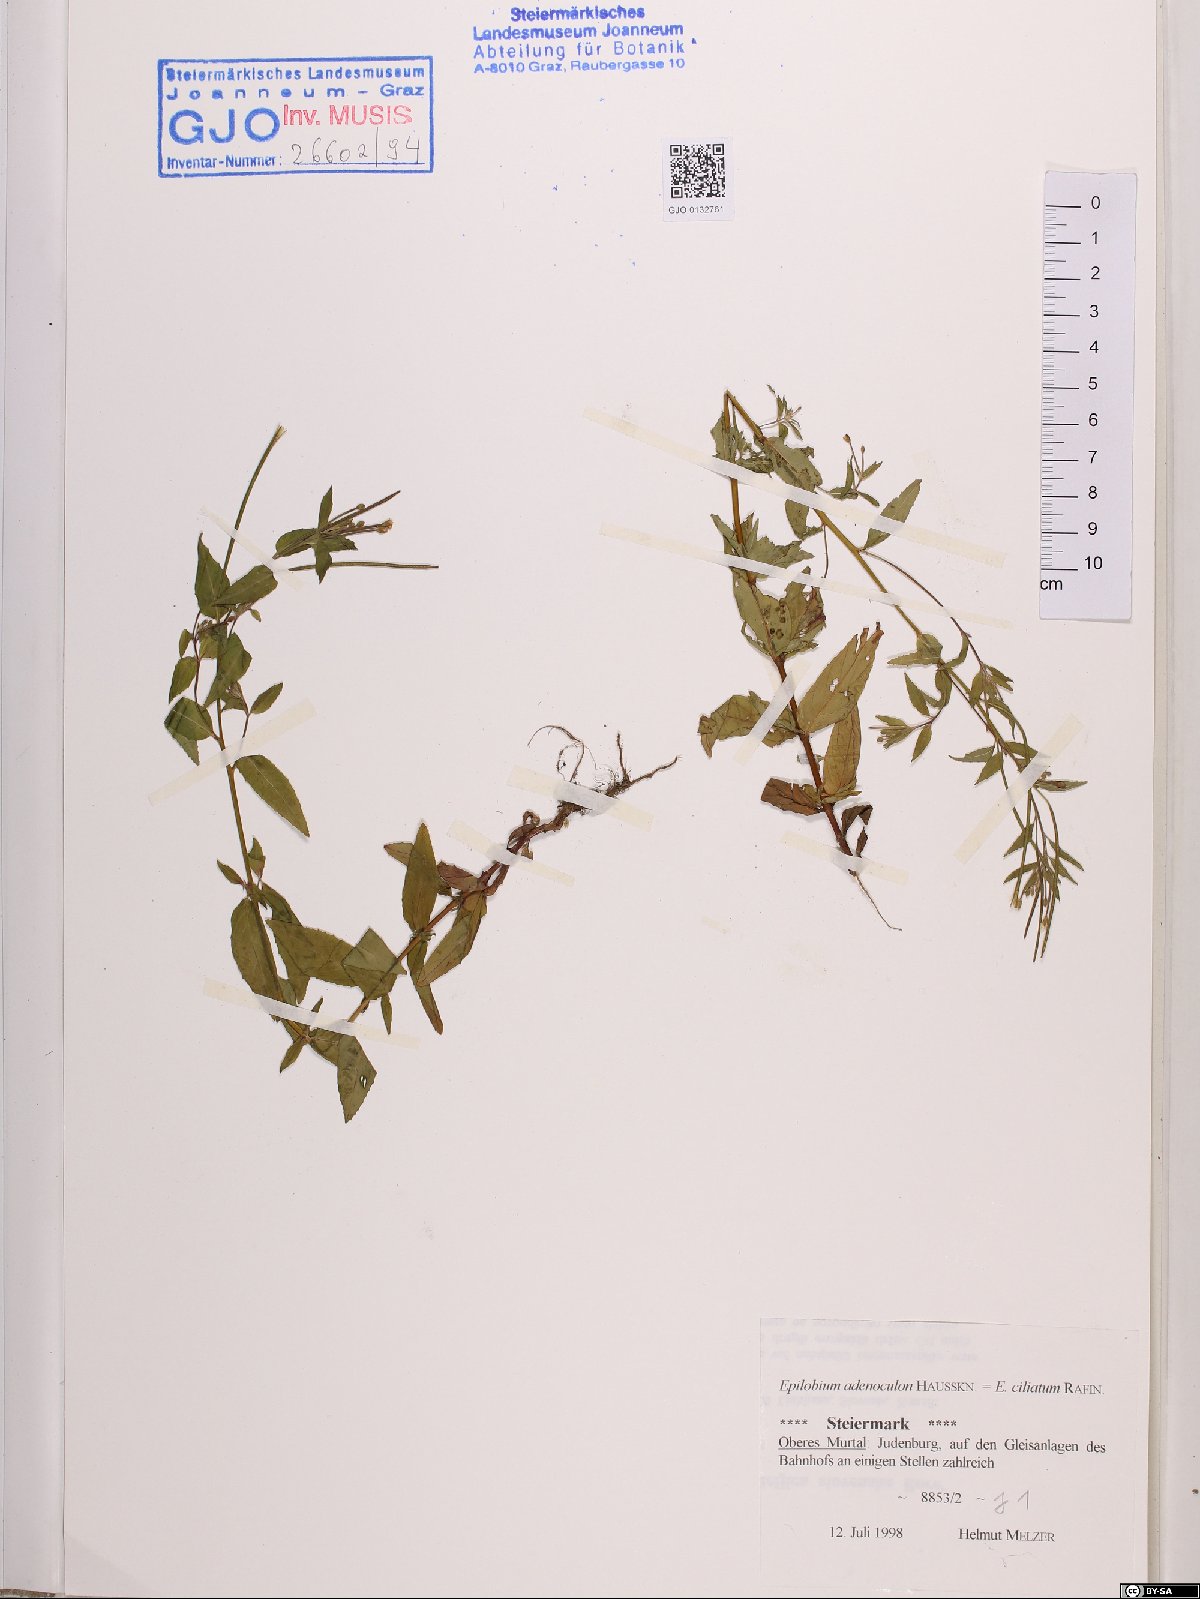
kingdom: Plantae
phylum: Tracheophyta
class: Magnoliopsida
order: Myrtales
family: Onagraceae
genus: Epilobium
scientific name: Epilobium ciliatum
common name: American willowherb
